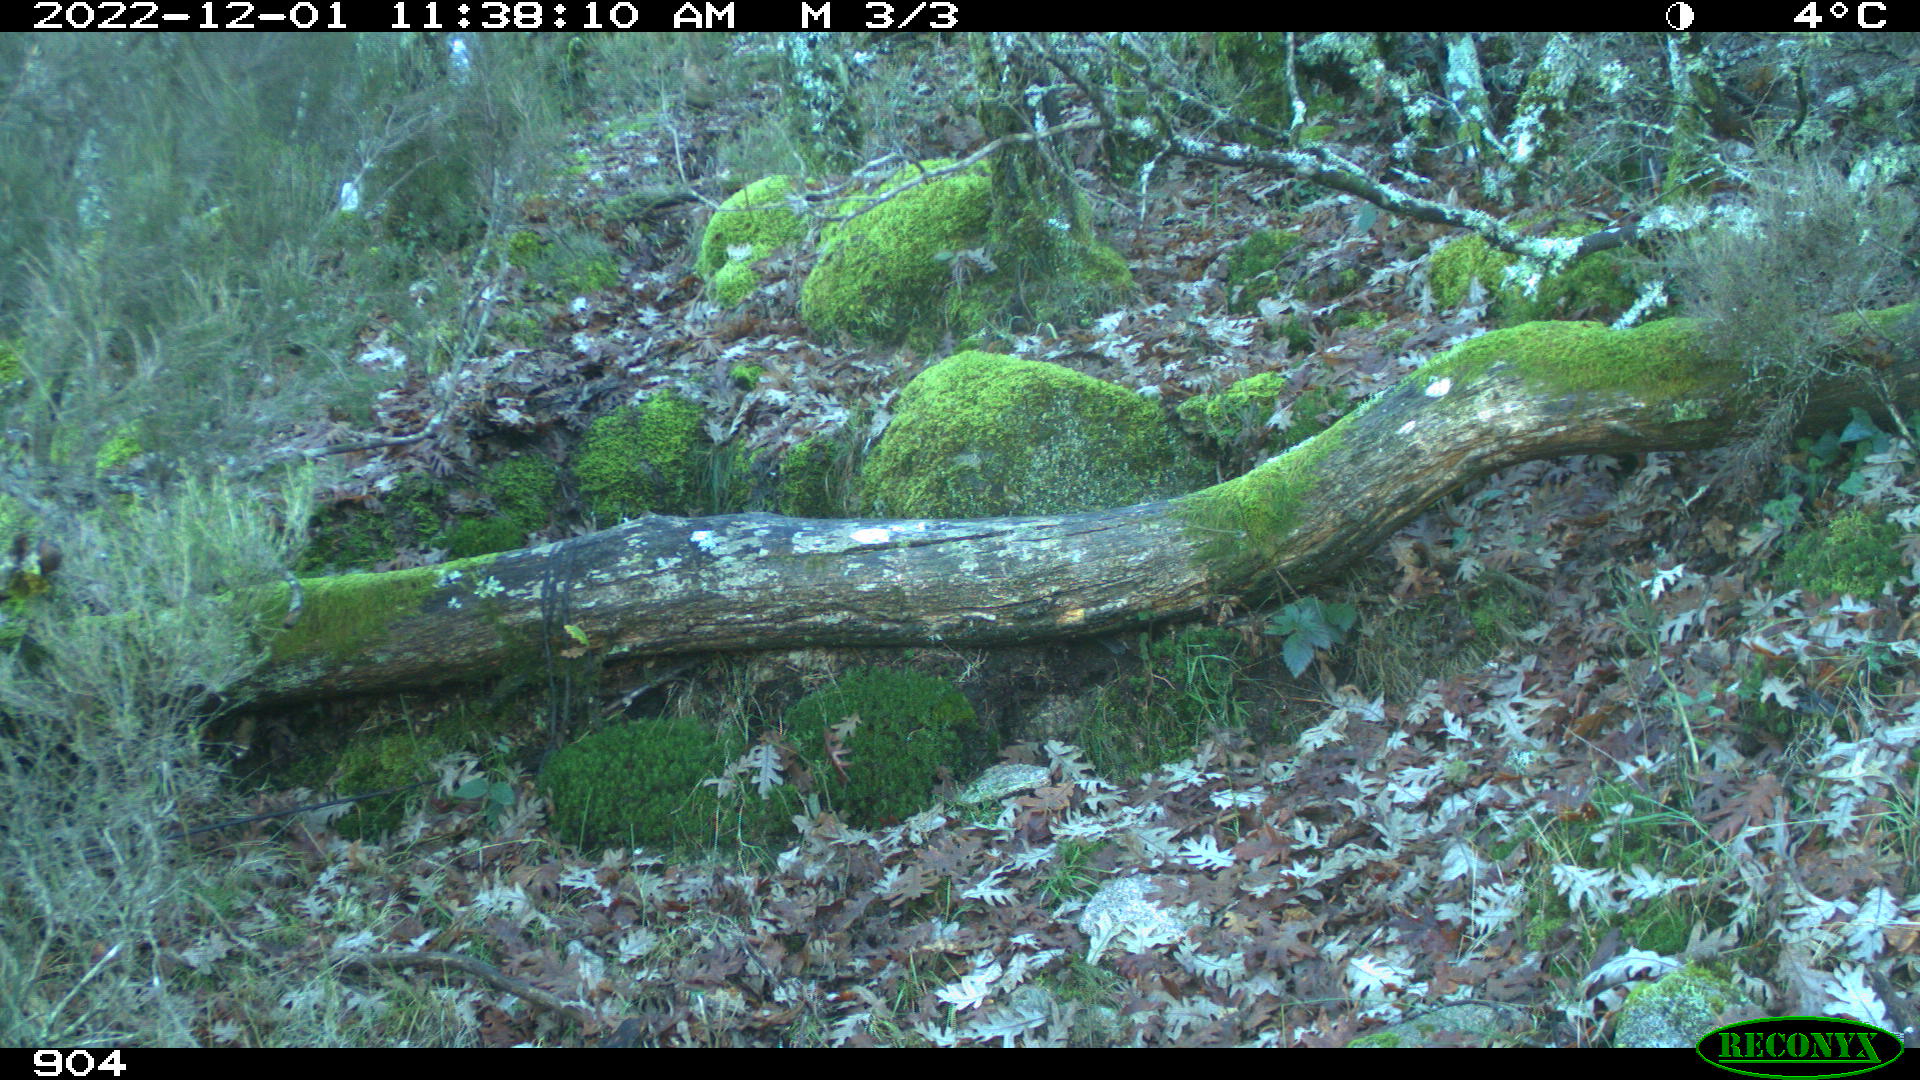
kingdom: Animalia
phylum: Chordata
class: Mammalia
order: Artiodactyla
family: Bovidae
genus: Bos
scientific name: Bos taurus
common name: Domesticated cattle
